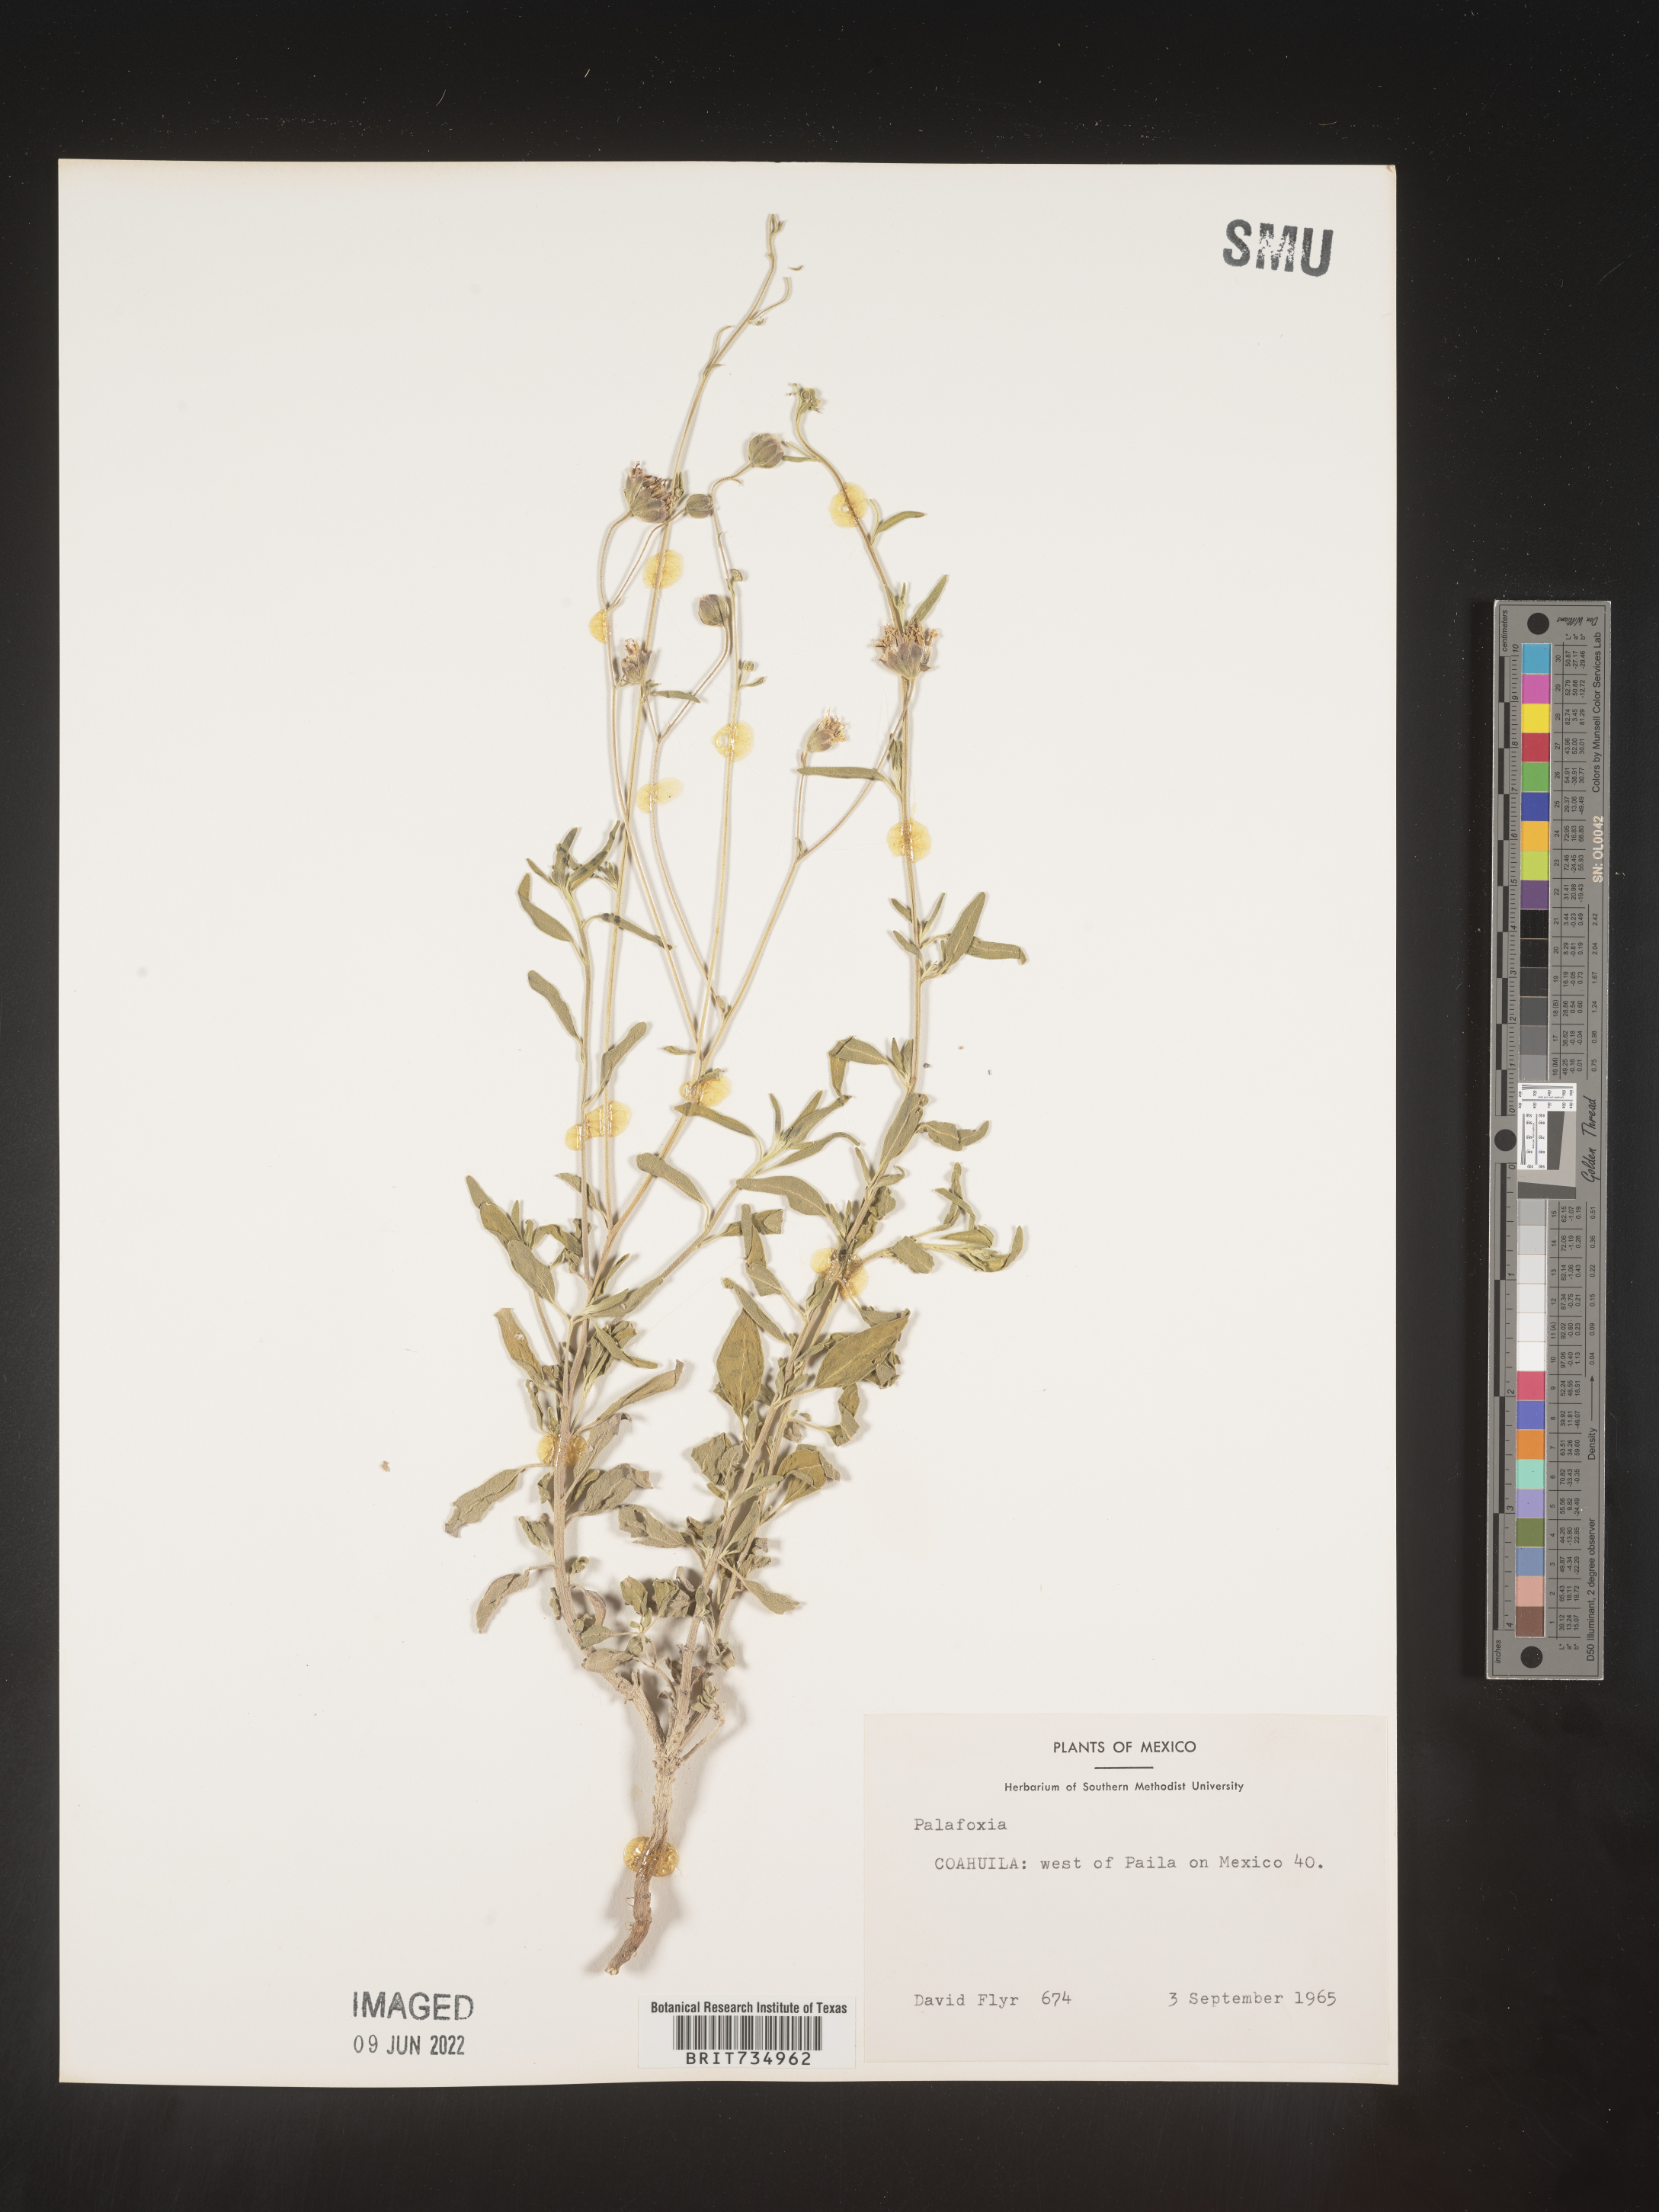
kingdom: Plantae
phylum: Tracheophyta
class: Magnoliopsida
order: Asterales
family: Asteraceae
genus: Palafoxia
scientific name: Palafoxia
